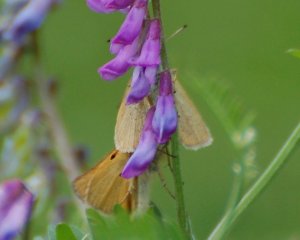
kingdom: Animalia
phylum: Arthropoda
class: Insecta
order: Lepidoptera
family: Hesperiidae
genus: Thymelicus
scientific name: Thymelicus lineola
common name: European Skipper
